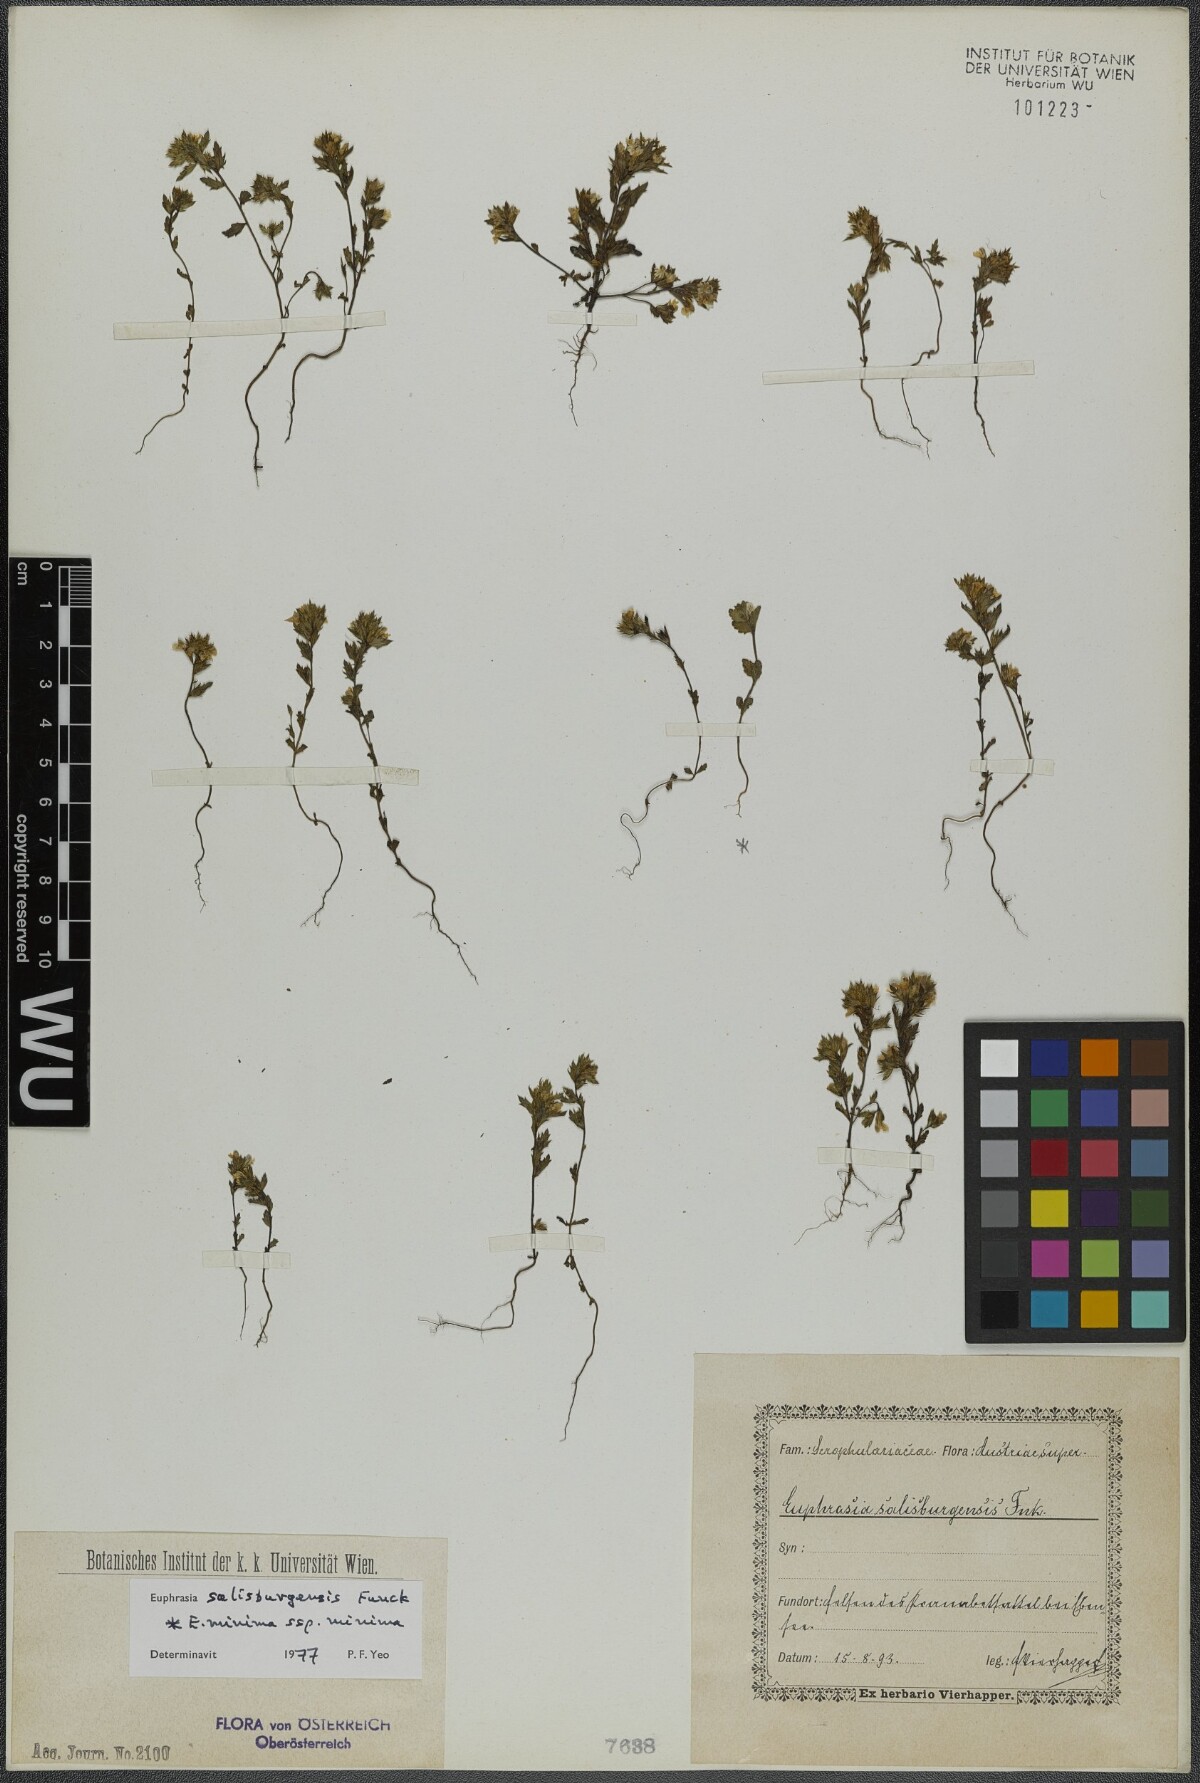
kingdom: Plantae
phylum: Tracheophyta
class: Magnoliopsida
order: Lamiales
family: Orobanchaceae
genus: Euphrasia
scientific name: Euphrasia salisburgensis
